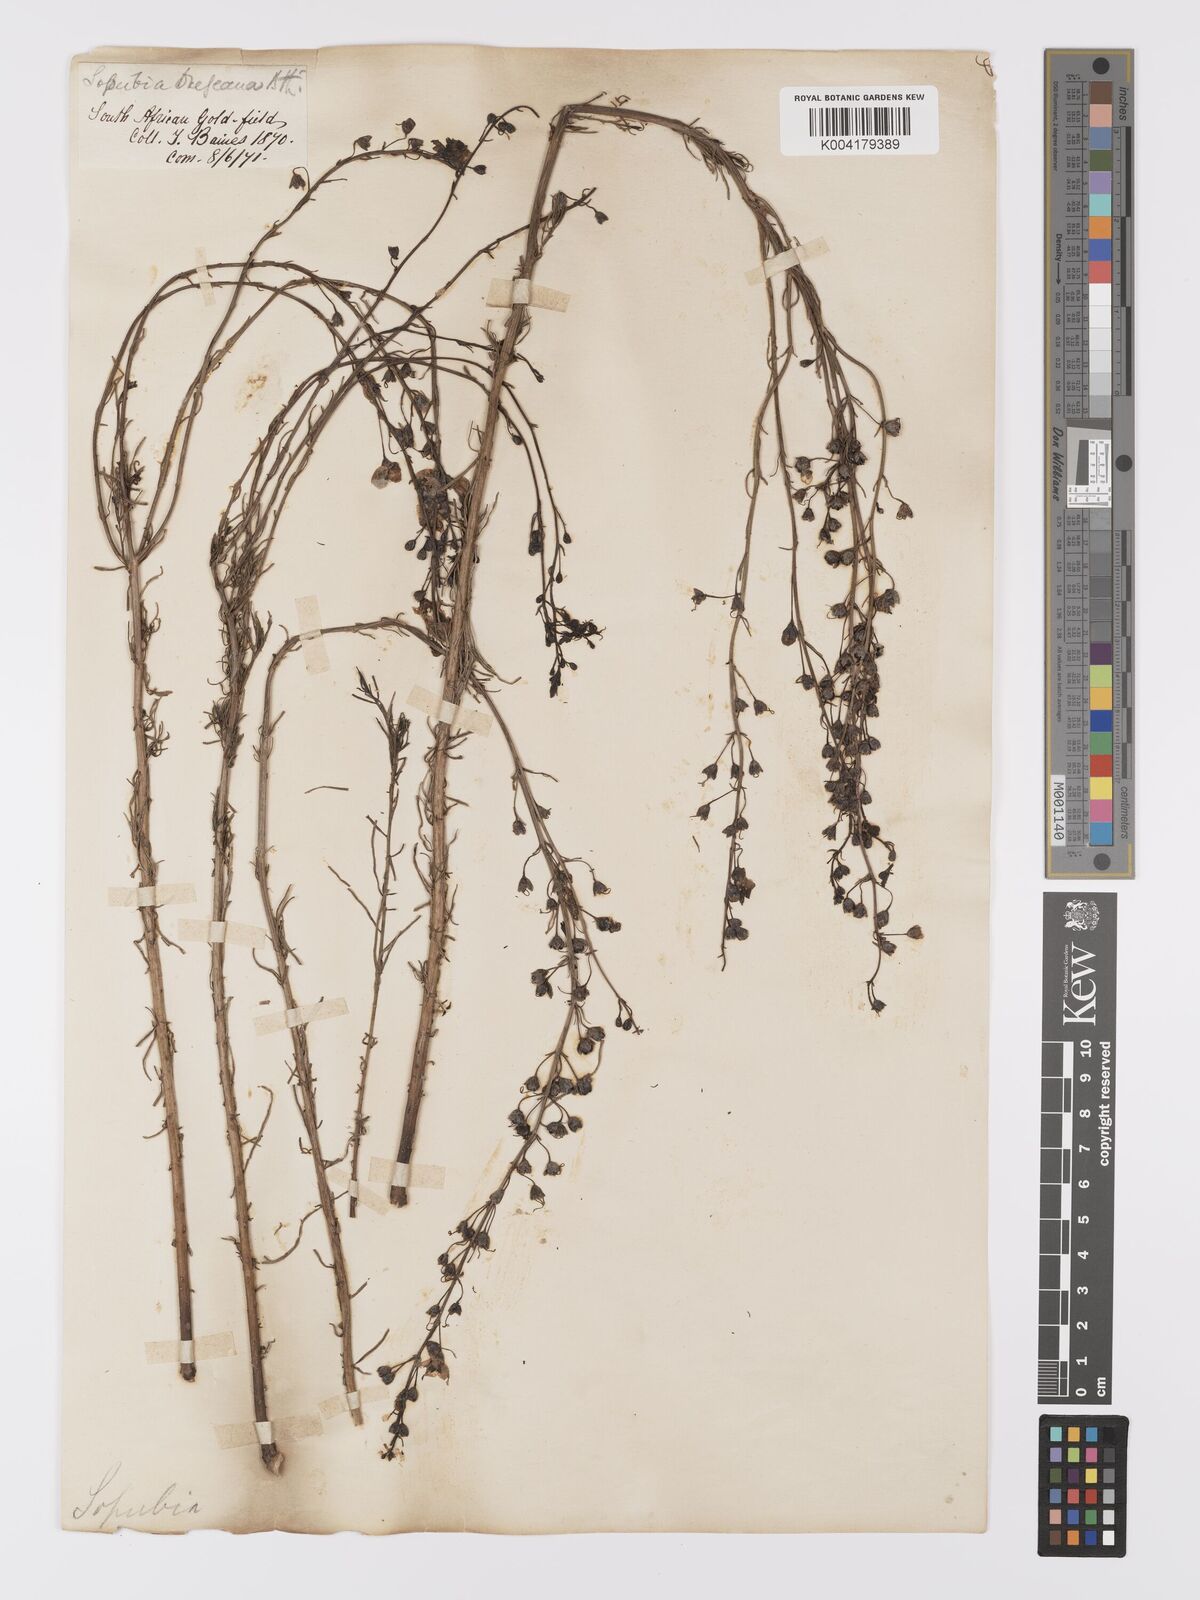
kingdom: Plantae
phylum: Tracheophyta
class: Magnoliopsida
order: Lamiales
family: Orobanchaceae
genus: Sopubia
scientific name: Sopubia simplex
